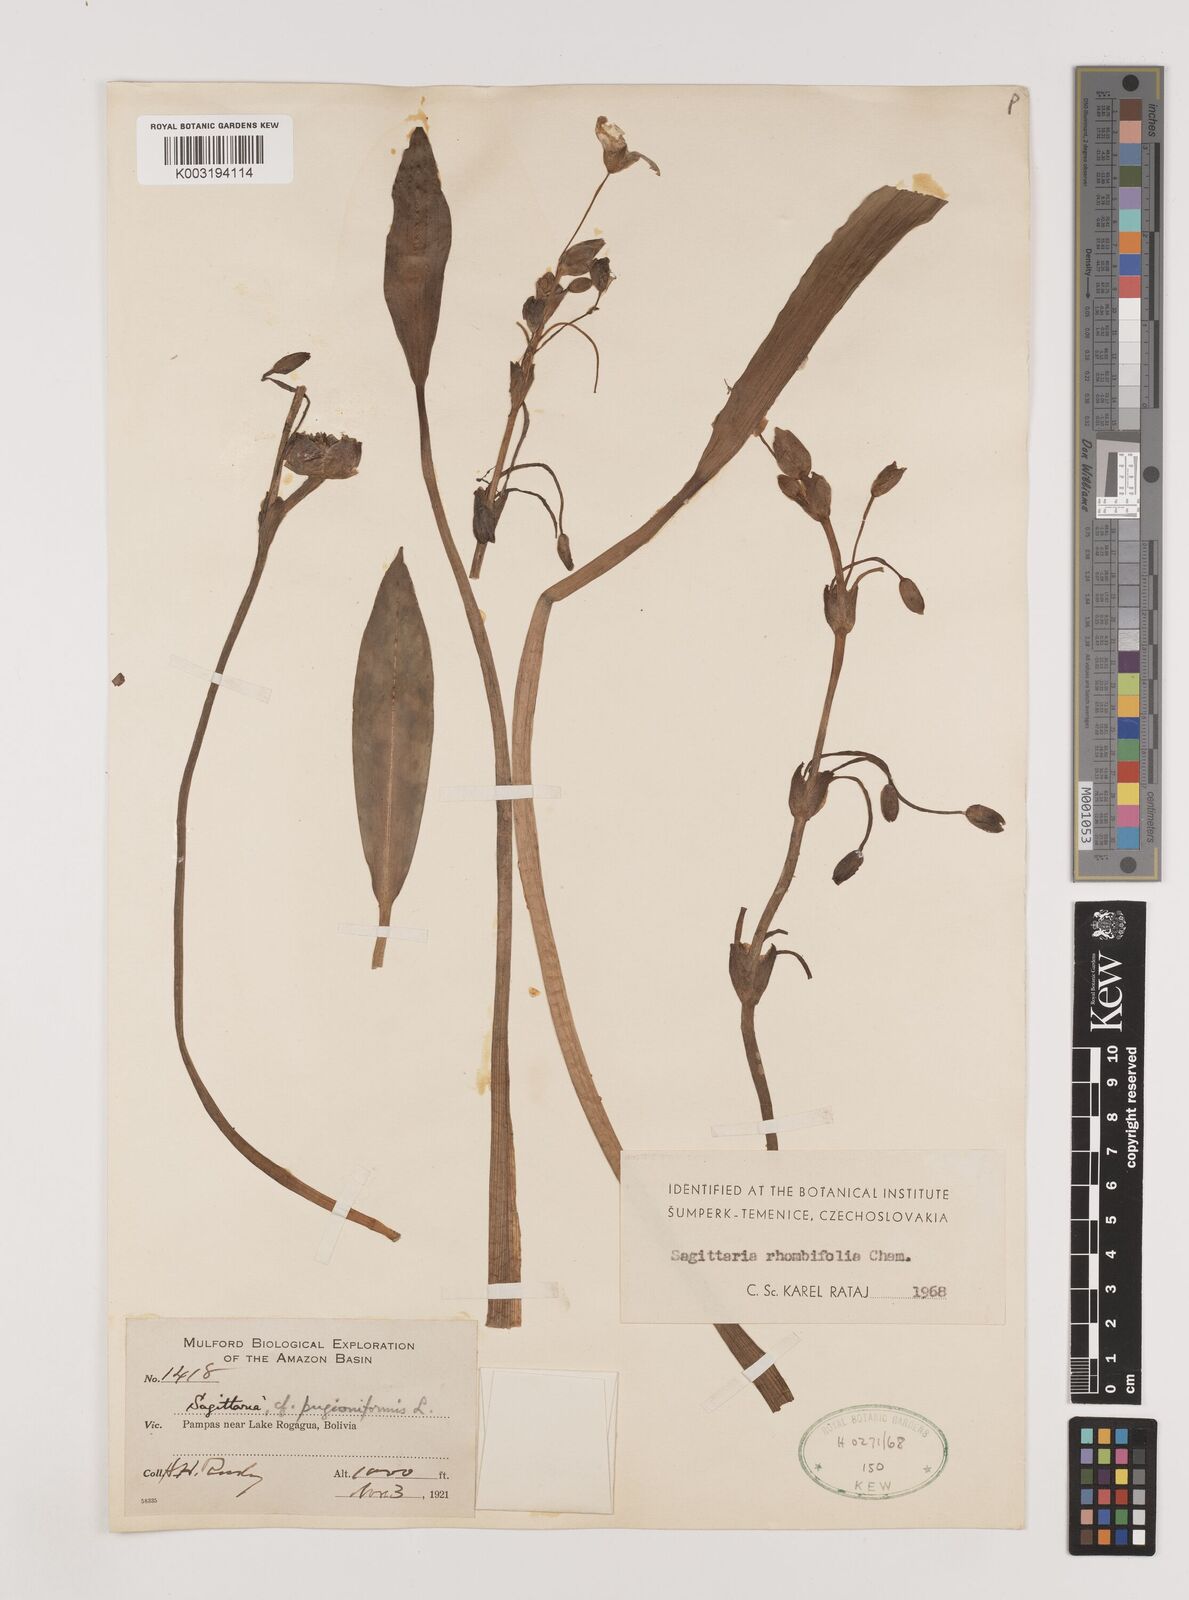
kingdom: Plantae
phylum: Tracheophyta
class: Liliopsida
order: Alismatales
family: Alismataceae
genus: Sagittaria
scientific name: Sagittaria rhombifolia
